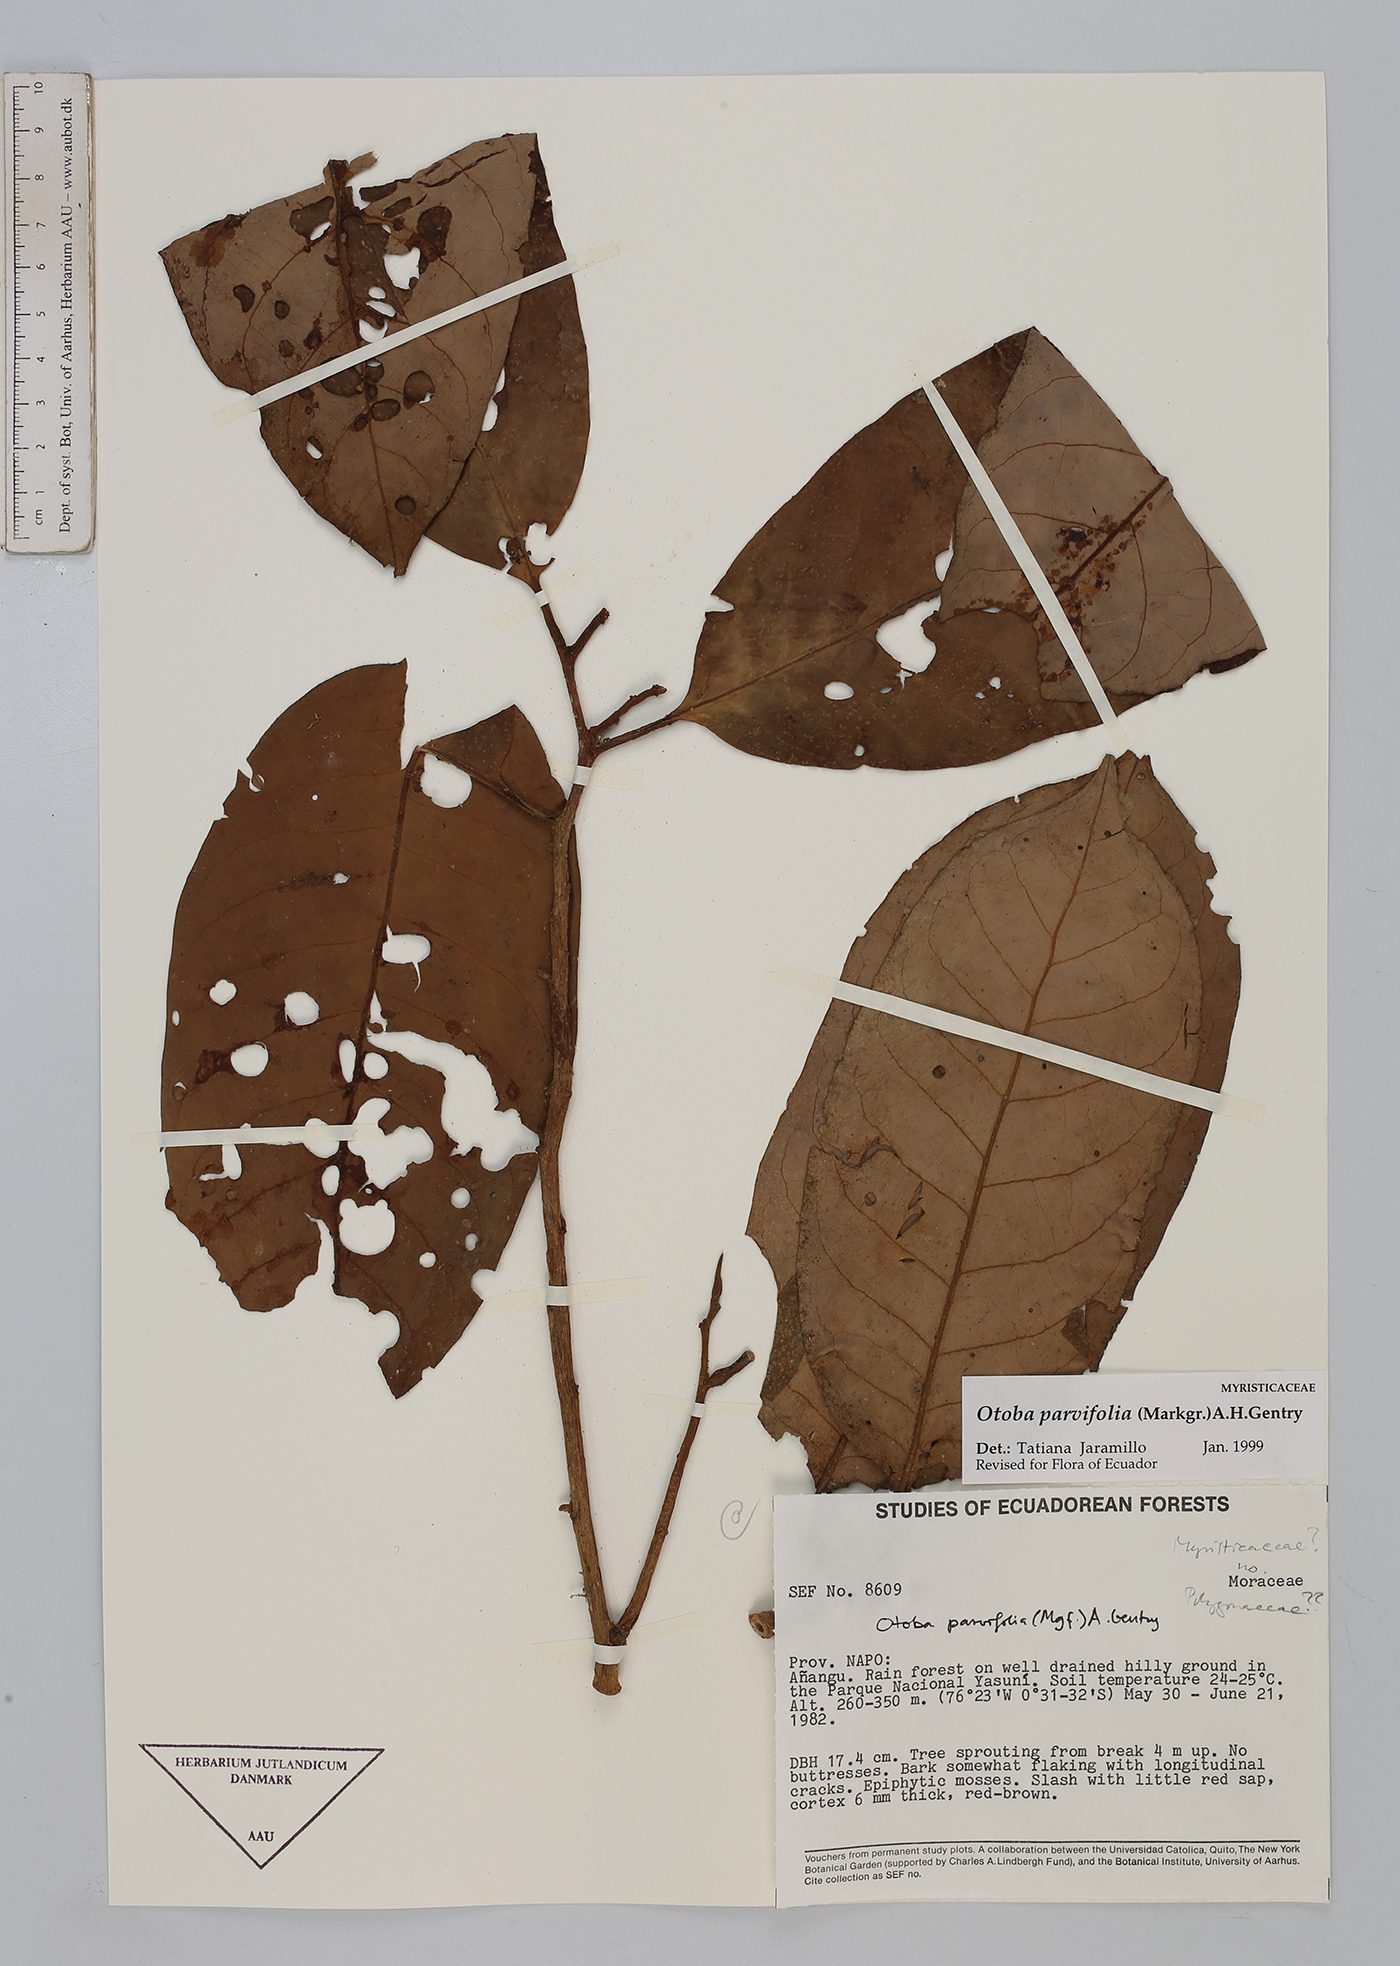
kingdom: Plantae
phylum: Tracheophyta
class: Magnoliopsida
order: Magnoliales
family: Myristicaceae
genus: Otoba
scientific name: Otoba parvifolia
